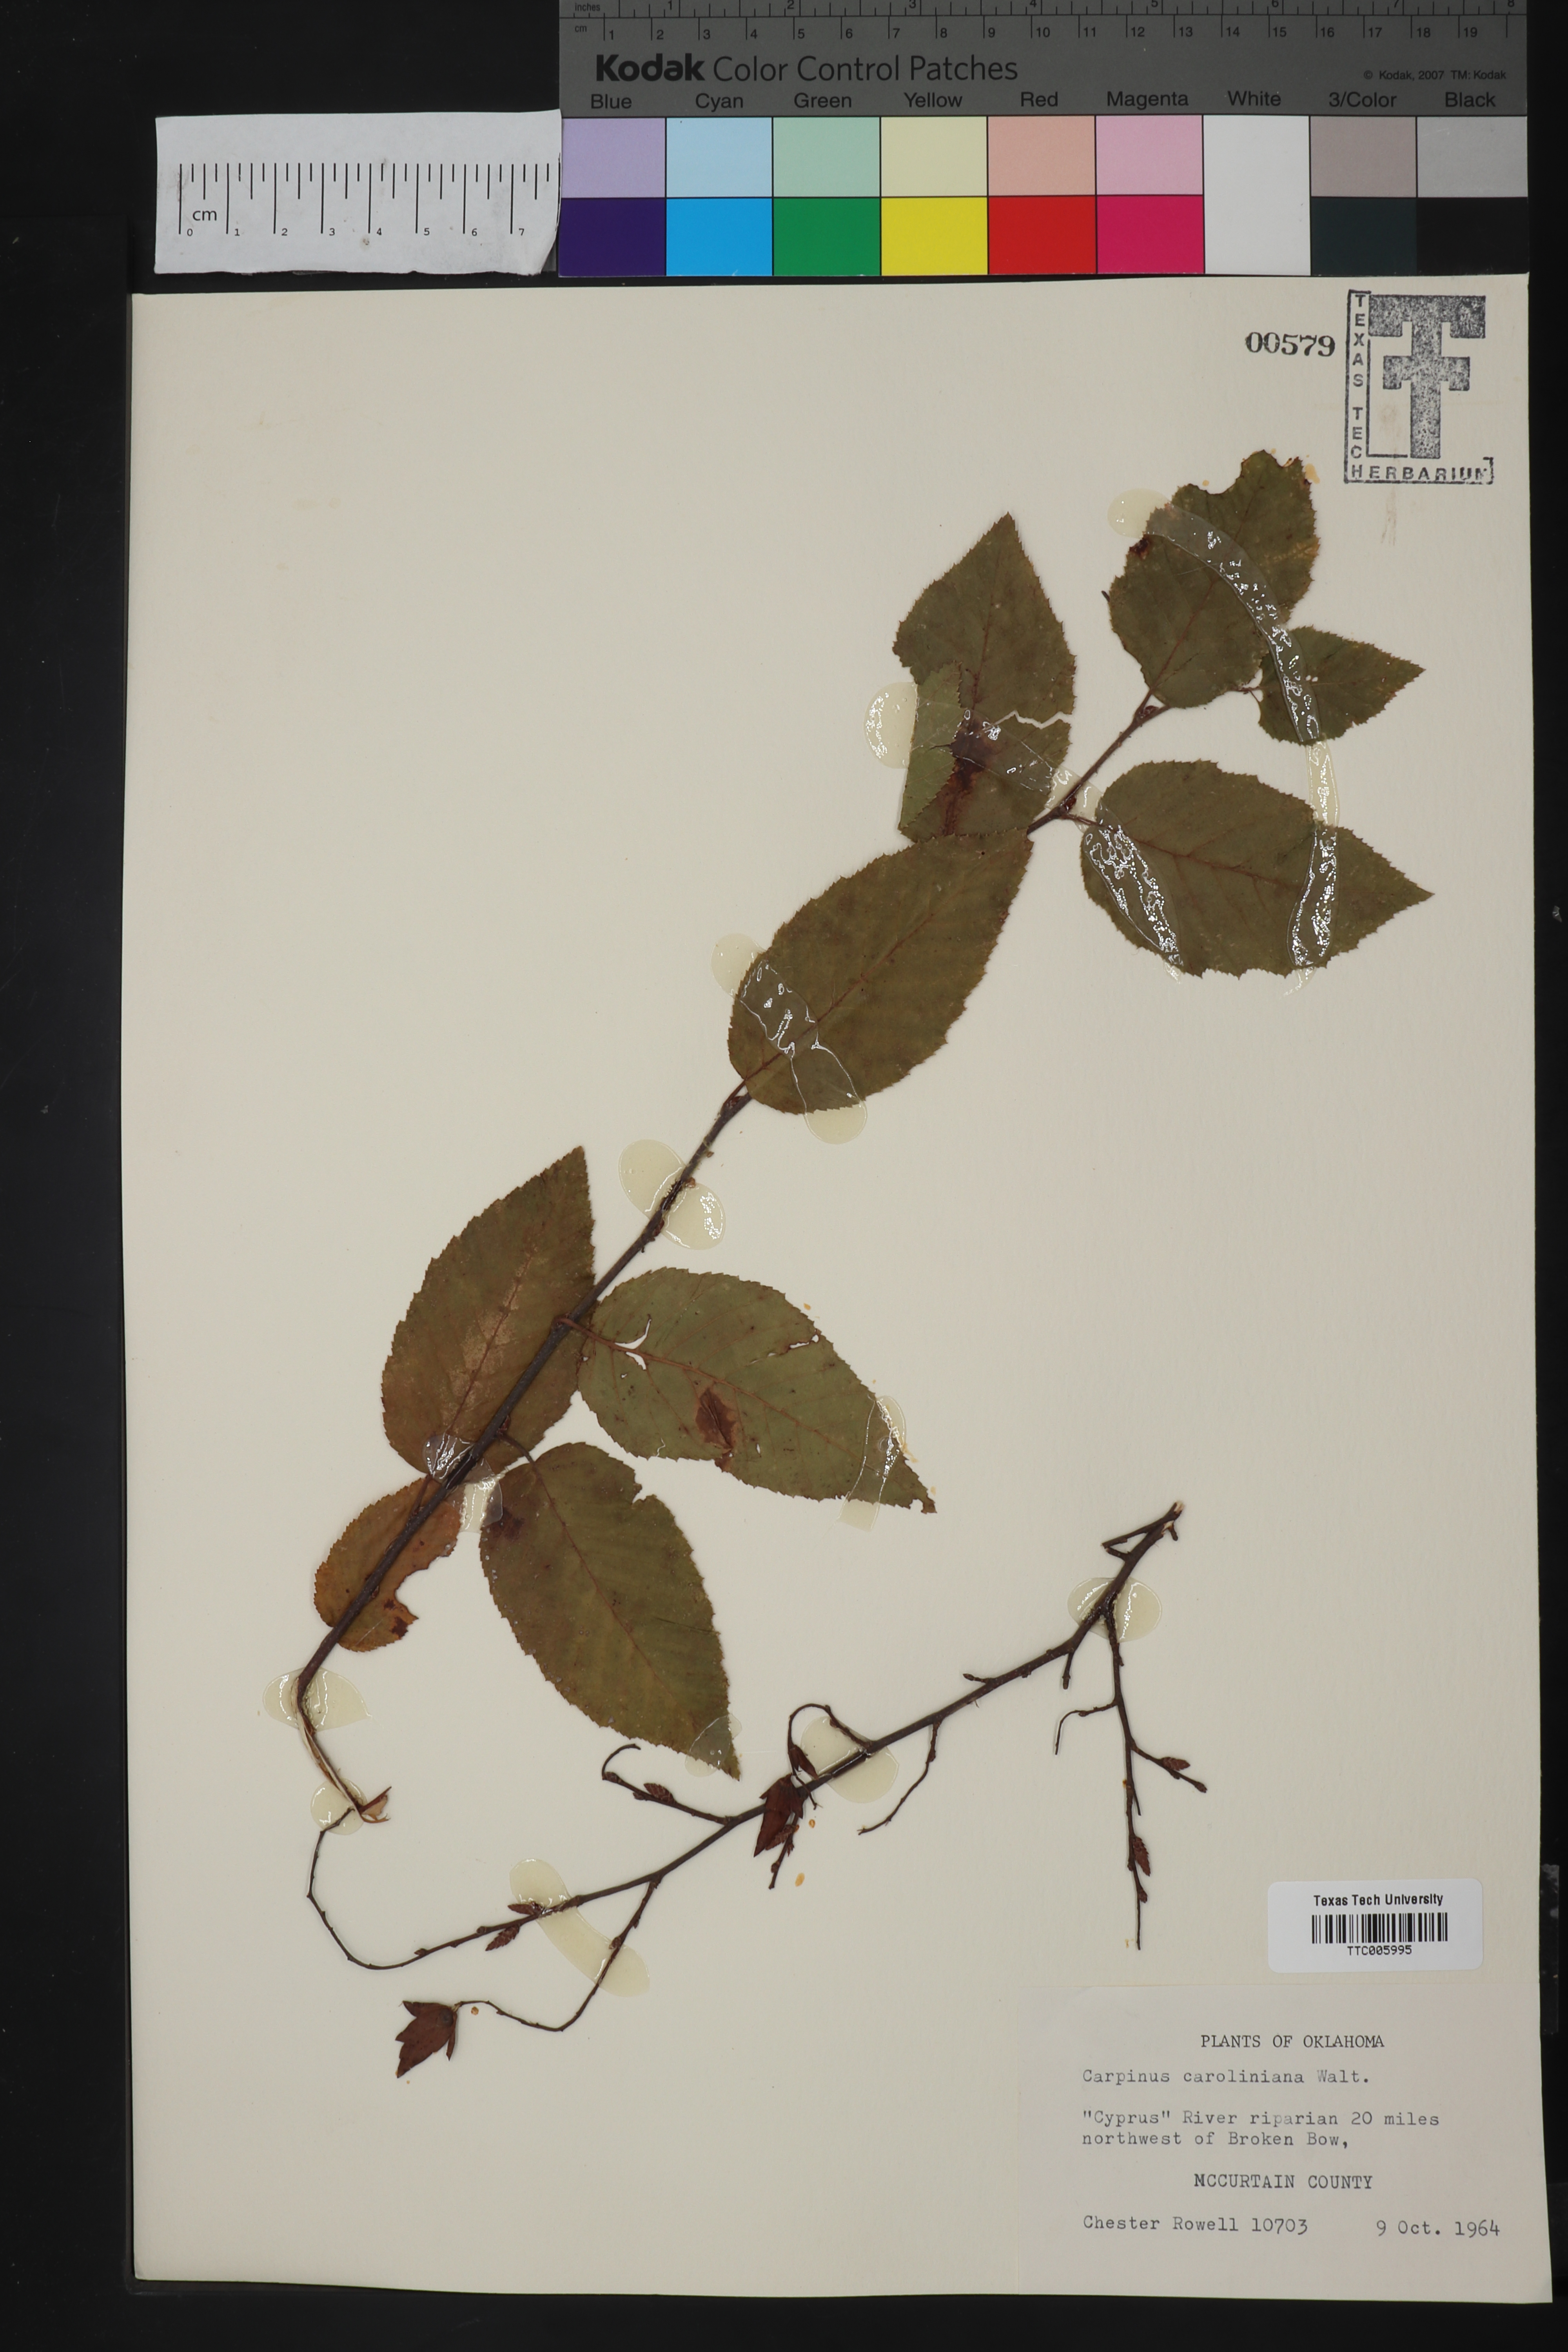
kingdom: Plantae
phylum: Tracheophyta
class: Magnoliopsida
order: Fagales
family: Betulaceae
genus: Carpinus
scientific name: Carpinus caroliniana
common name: American hornbeam
